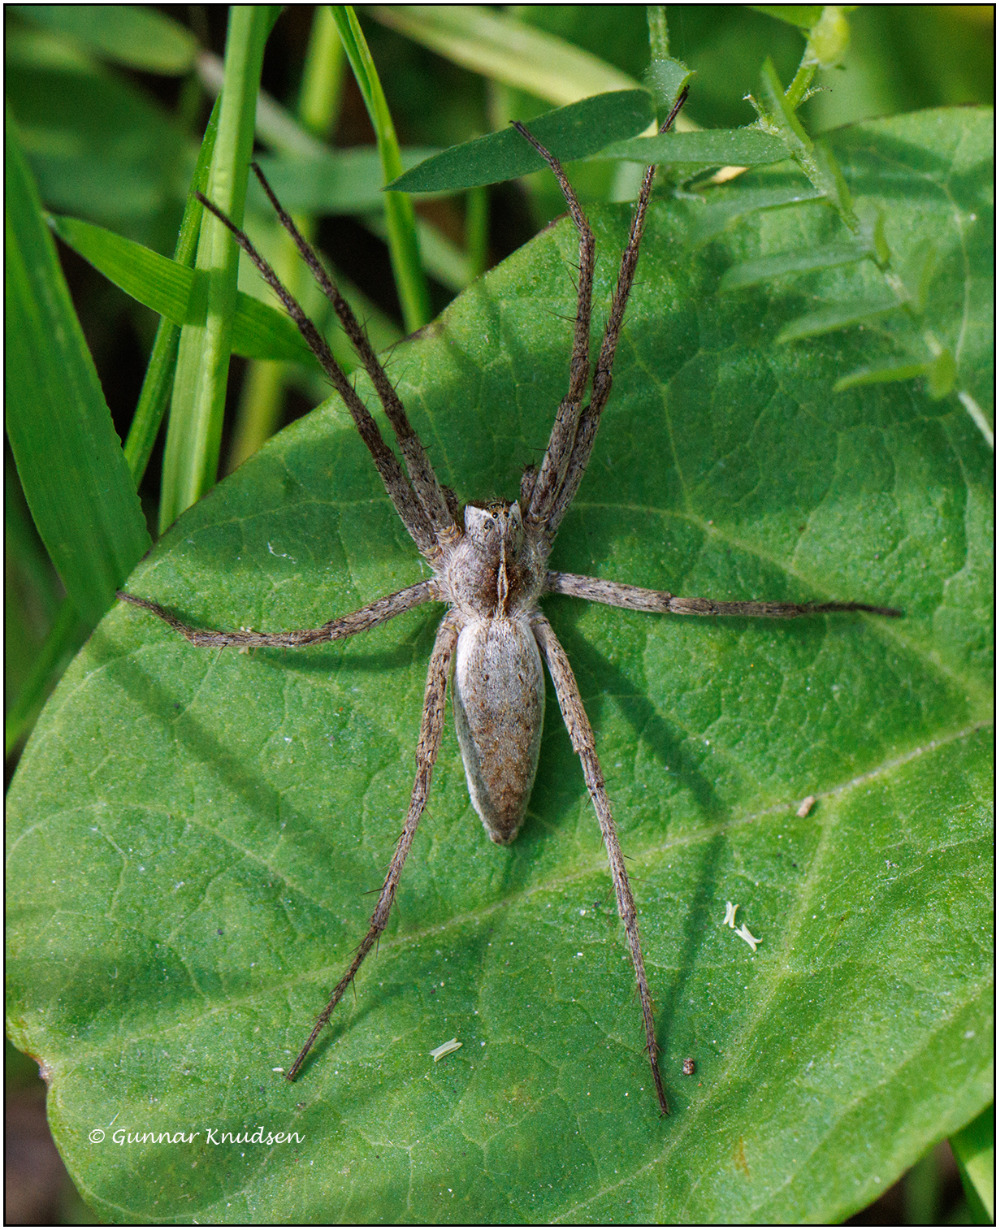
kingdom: Animalia
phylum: Arthropoda
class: Arachnida
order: Araneae
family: Pisauridae
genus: Pisaura
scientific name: Pisaura mirabilis
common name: Almindelig rovedderkop
